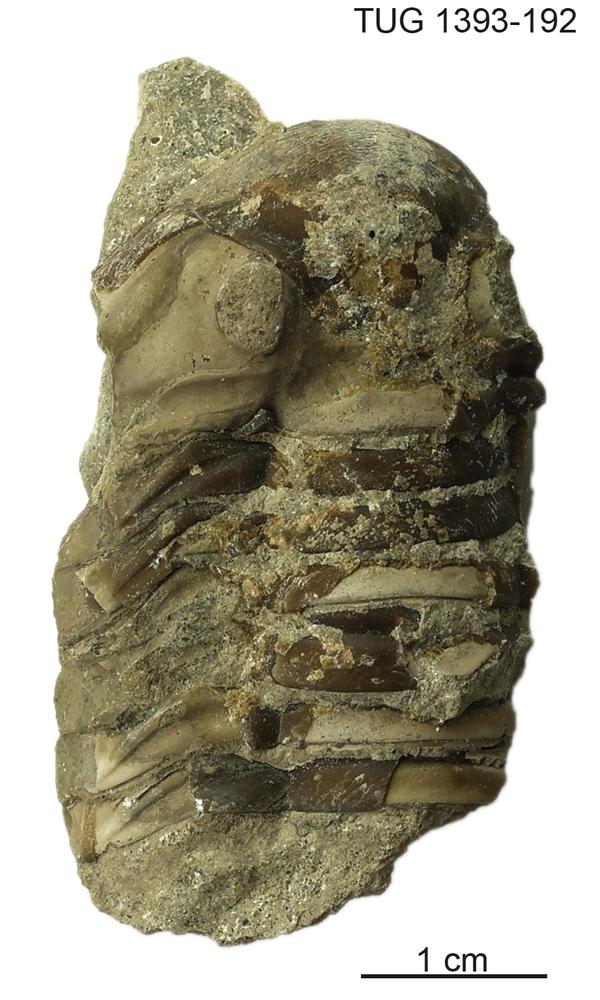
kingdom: Animalia
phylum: Arthropoda
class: Trilobita
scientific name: Trilobita
